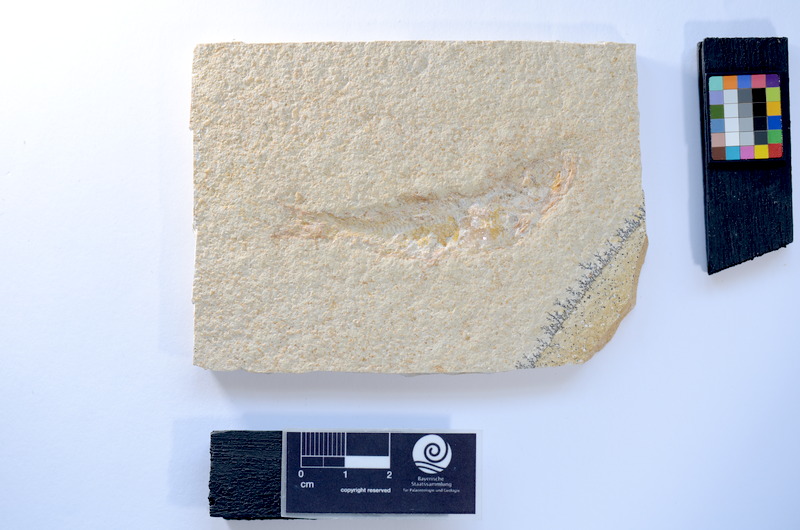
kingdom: Animalia
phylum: Chordata
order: Salmoniformes
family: Orthogonikleithridae
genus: Leptolepides
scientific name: Leptolepides
